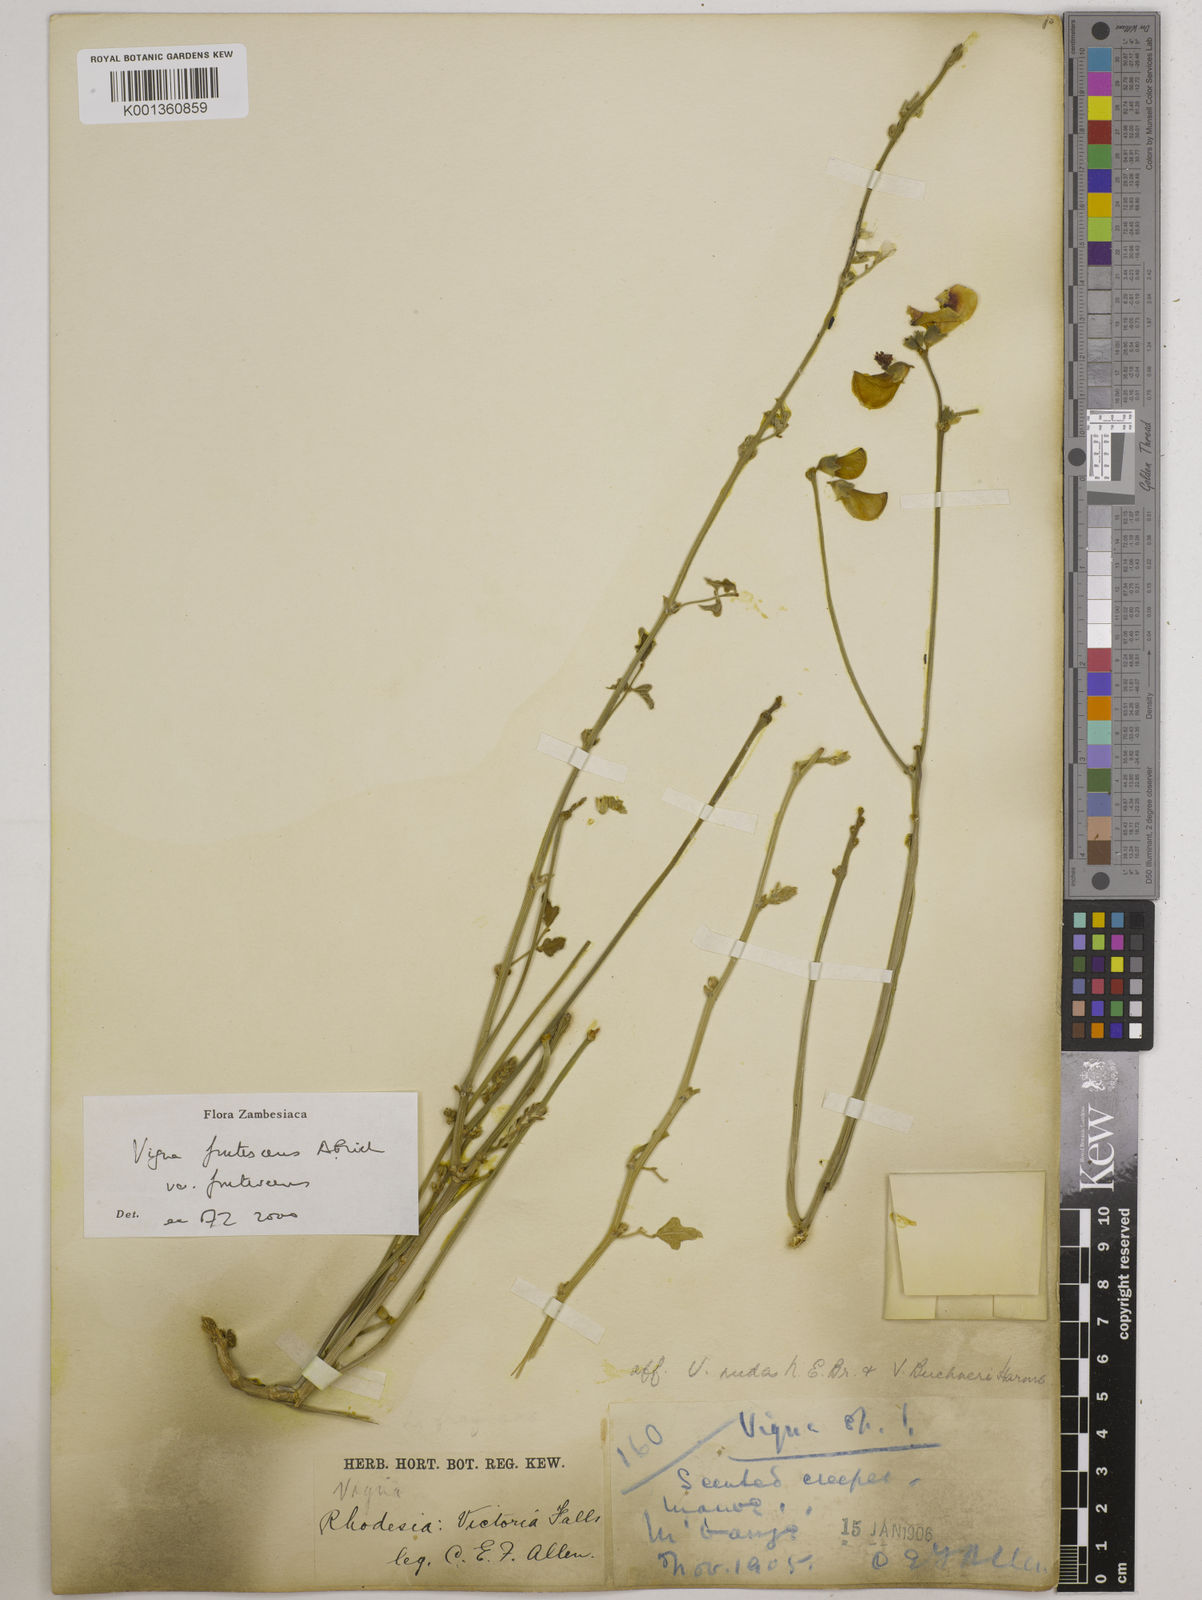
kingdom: Plantae
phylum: Tracheophyta
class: Magnoliopsida
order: Fabales
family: Fabaceae
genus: Vigna
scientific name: Vigna
